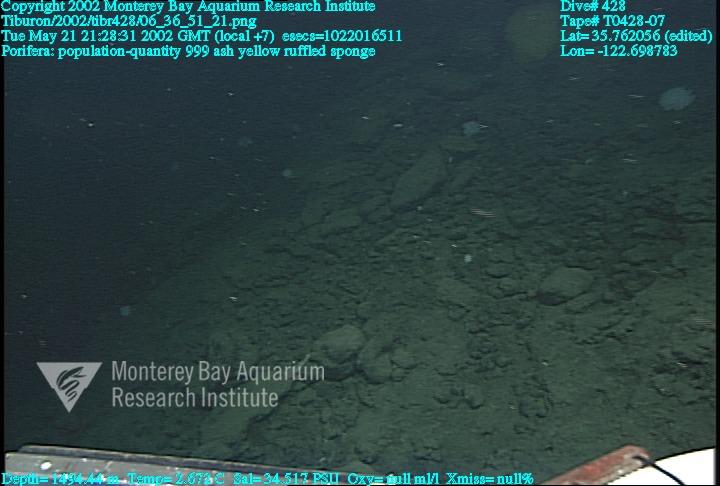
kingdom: Animalia
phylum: Porifera
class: Hexactinellida
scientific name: Hexactinellida
